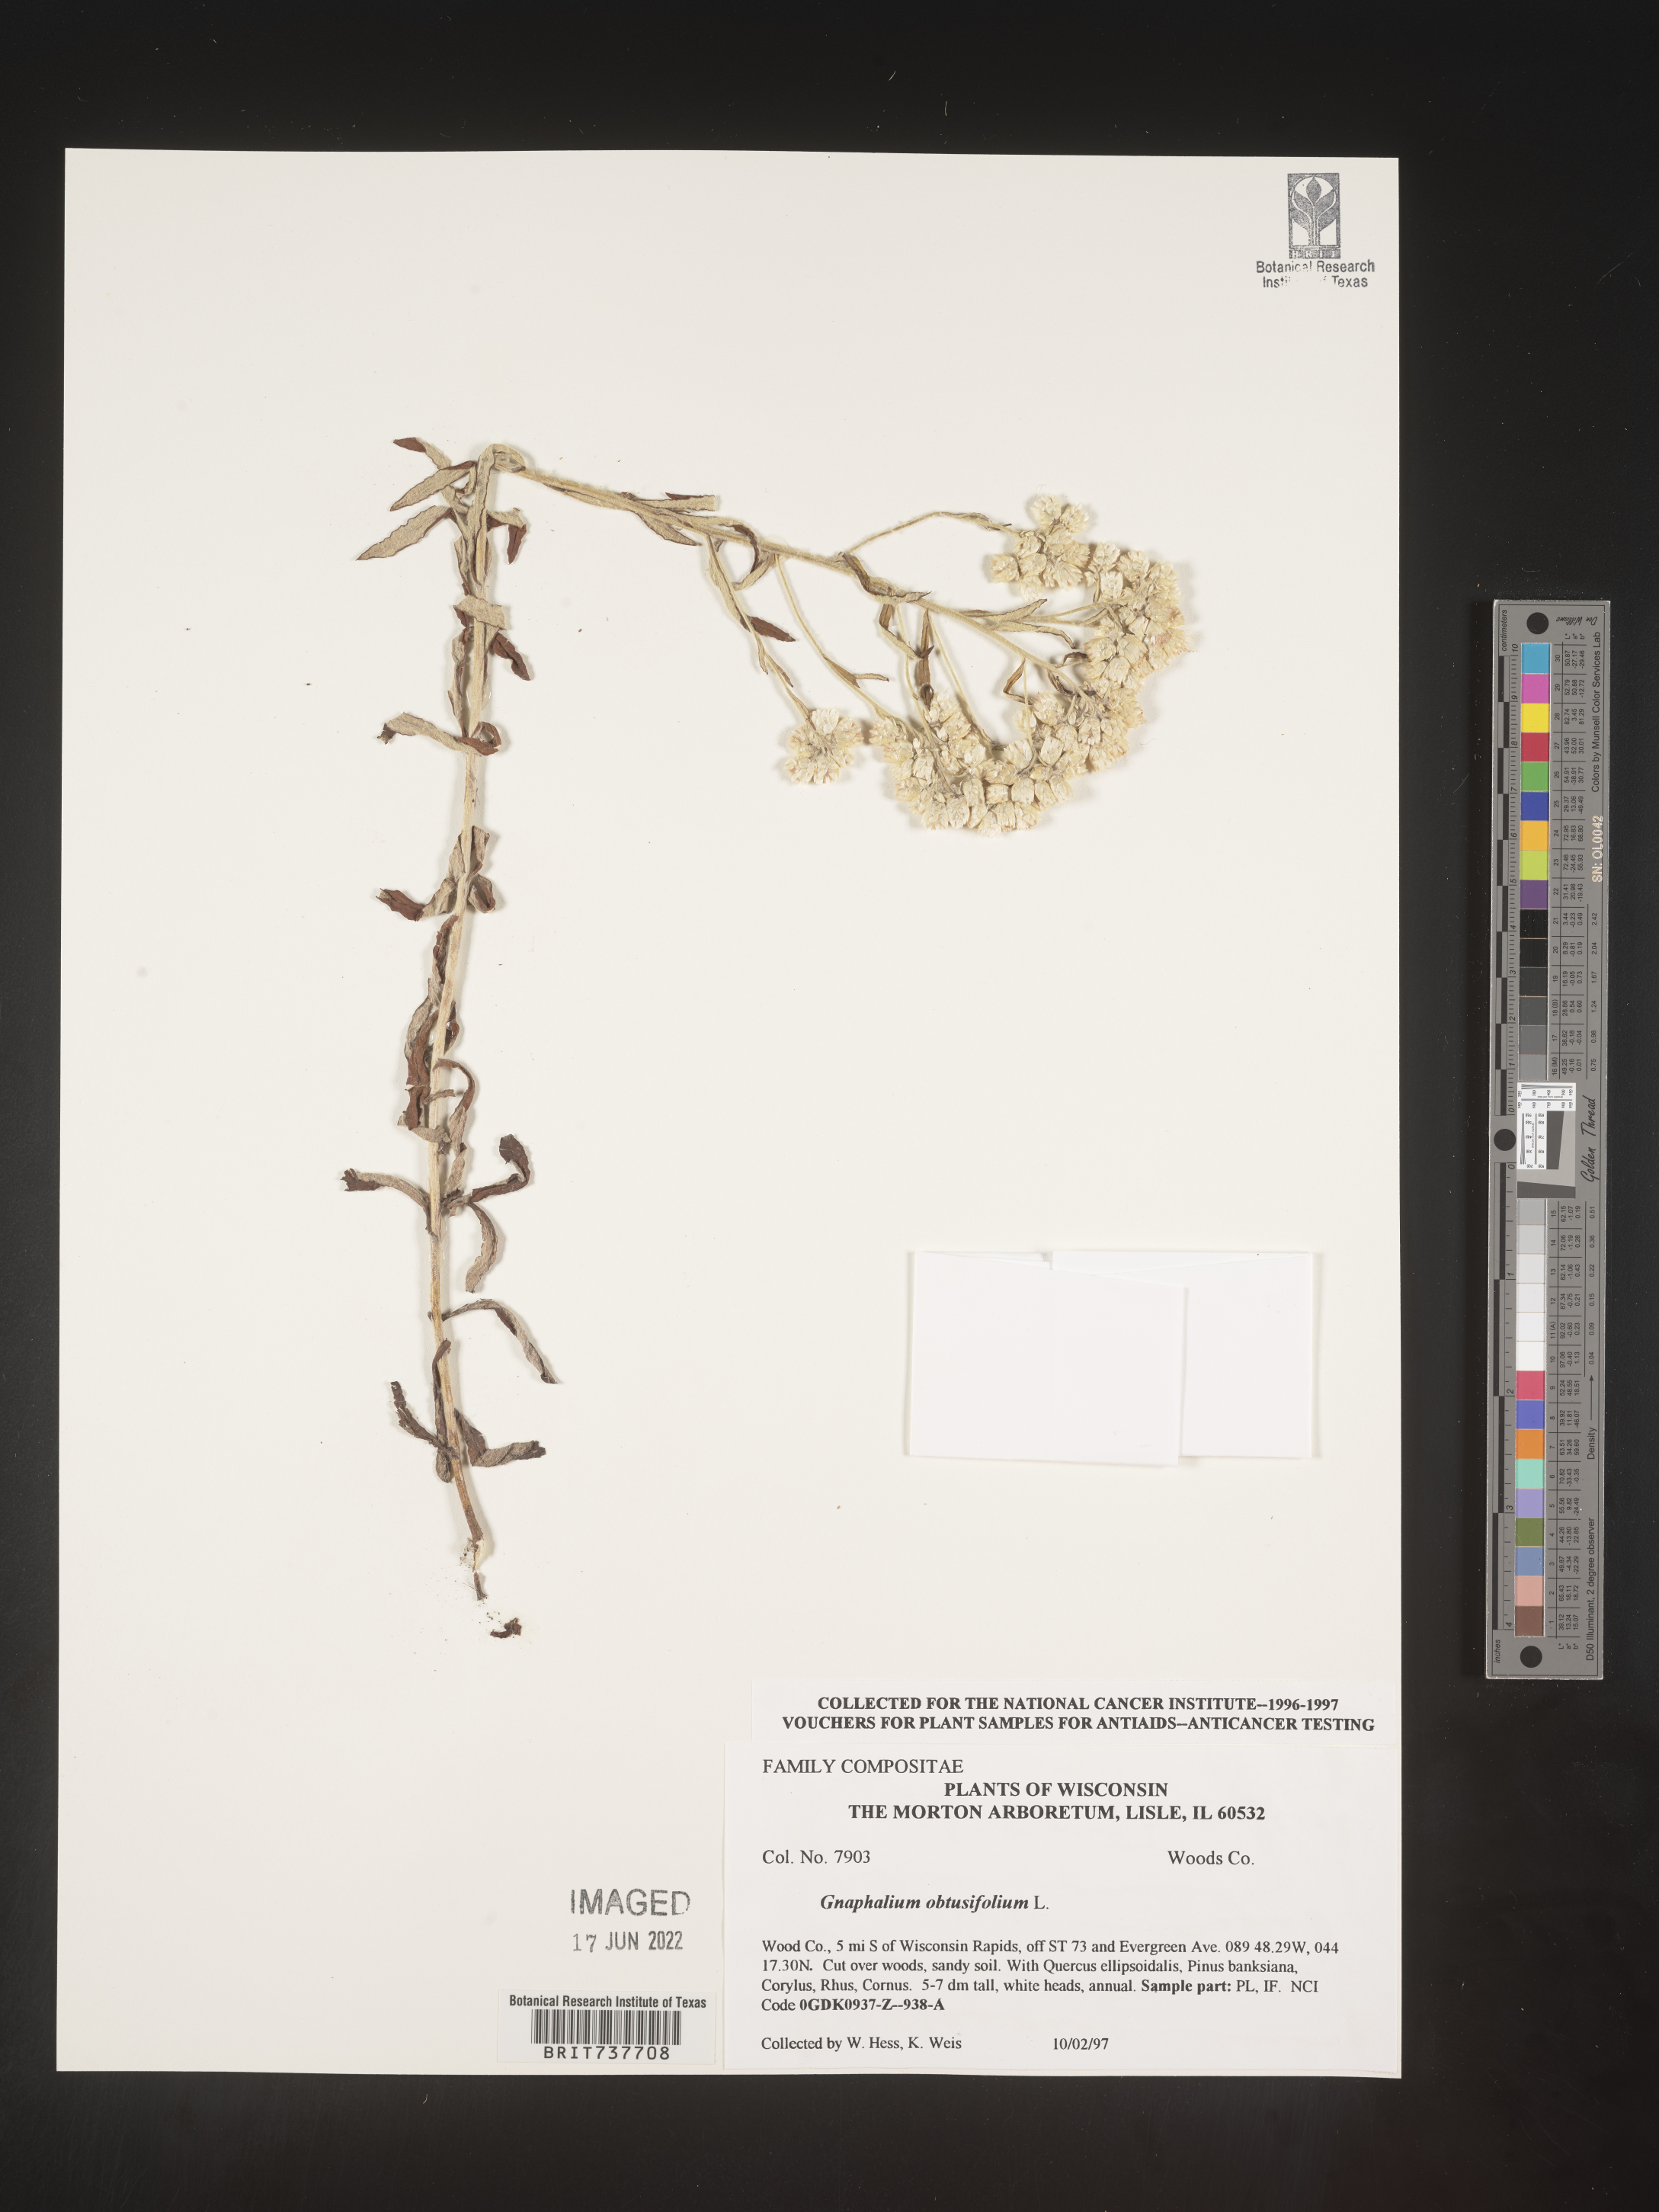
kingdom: Plantae
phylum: Tracheophyta
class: Magnoliopsida
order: Asterales
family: Asteraceae
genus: Pseudognaphalium
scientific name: Pseudognaphalium obtusifolium
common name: Eastern rabbit-tobacco
